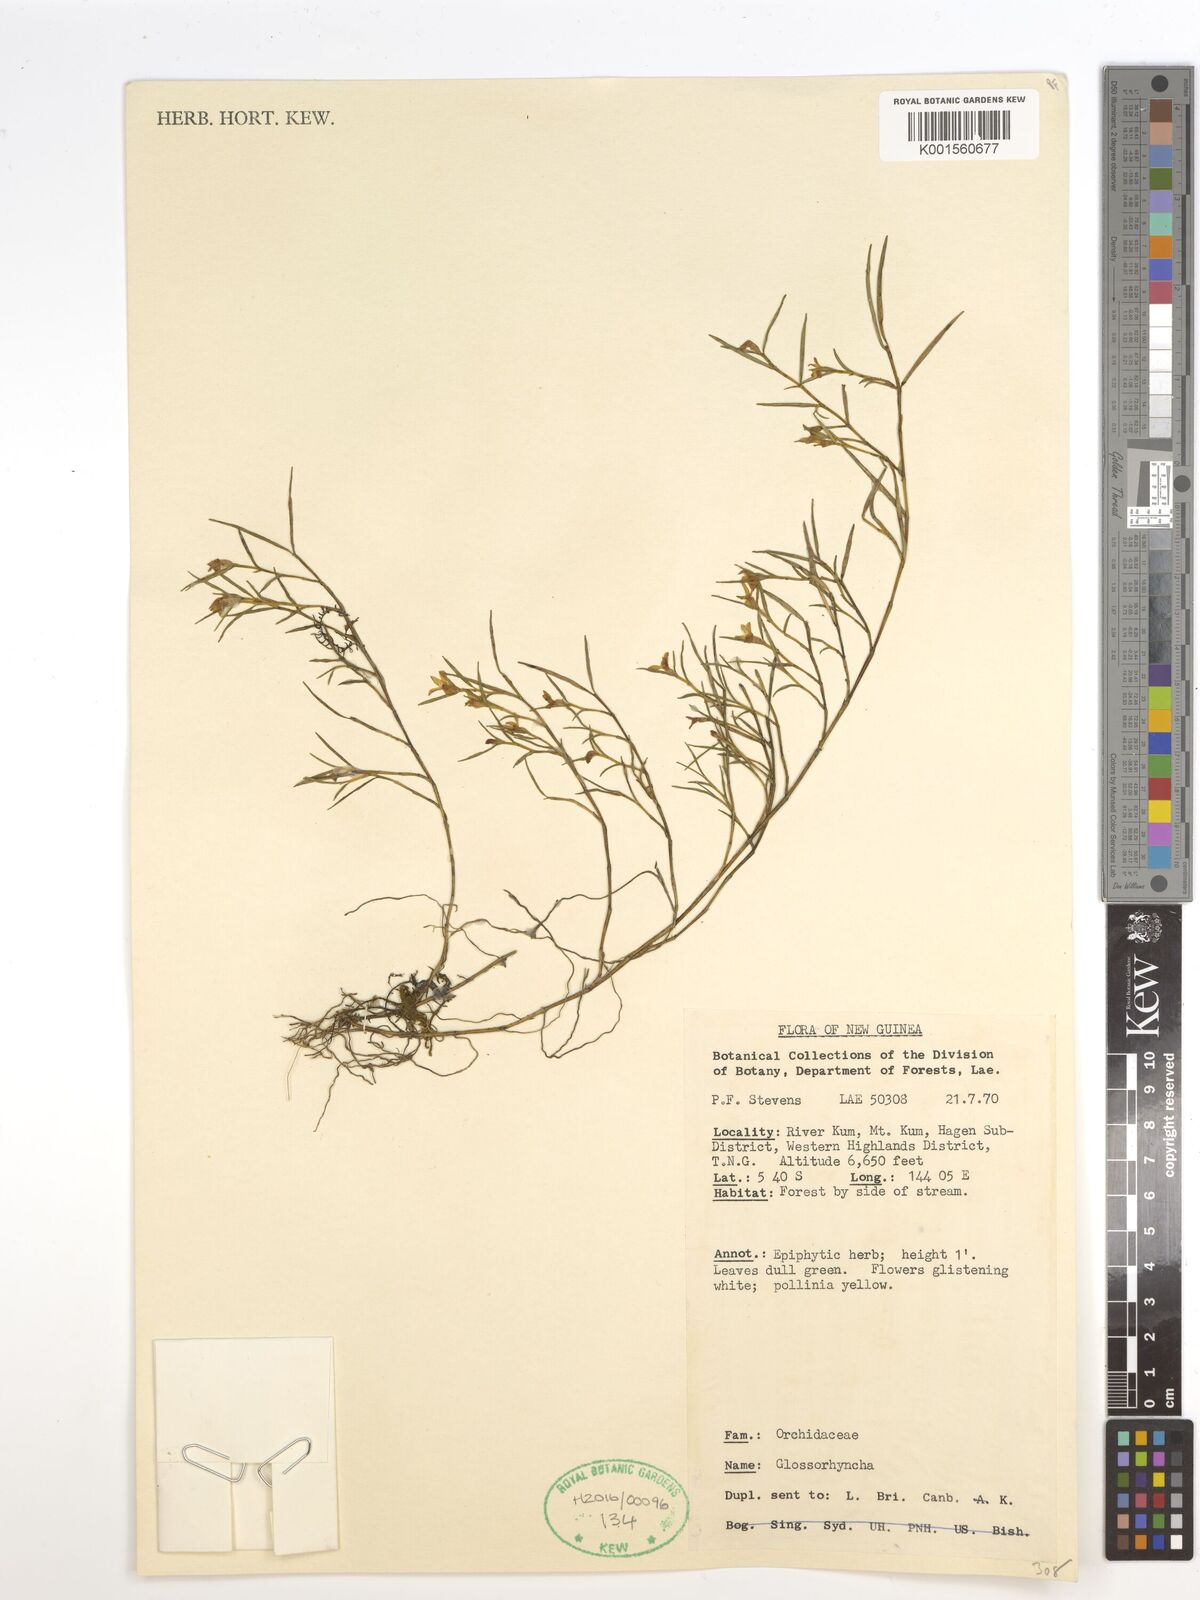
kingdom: Plantae
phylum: Tracheophyta
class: Liliopsida
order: Asparagales
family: Orchidaceae
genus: Glomera
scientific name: Glomera
